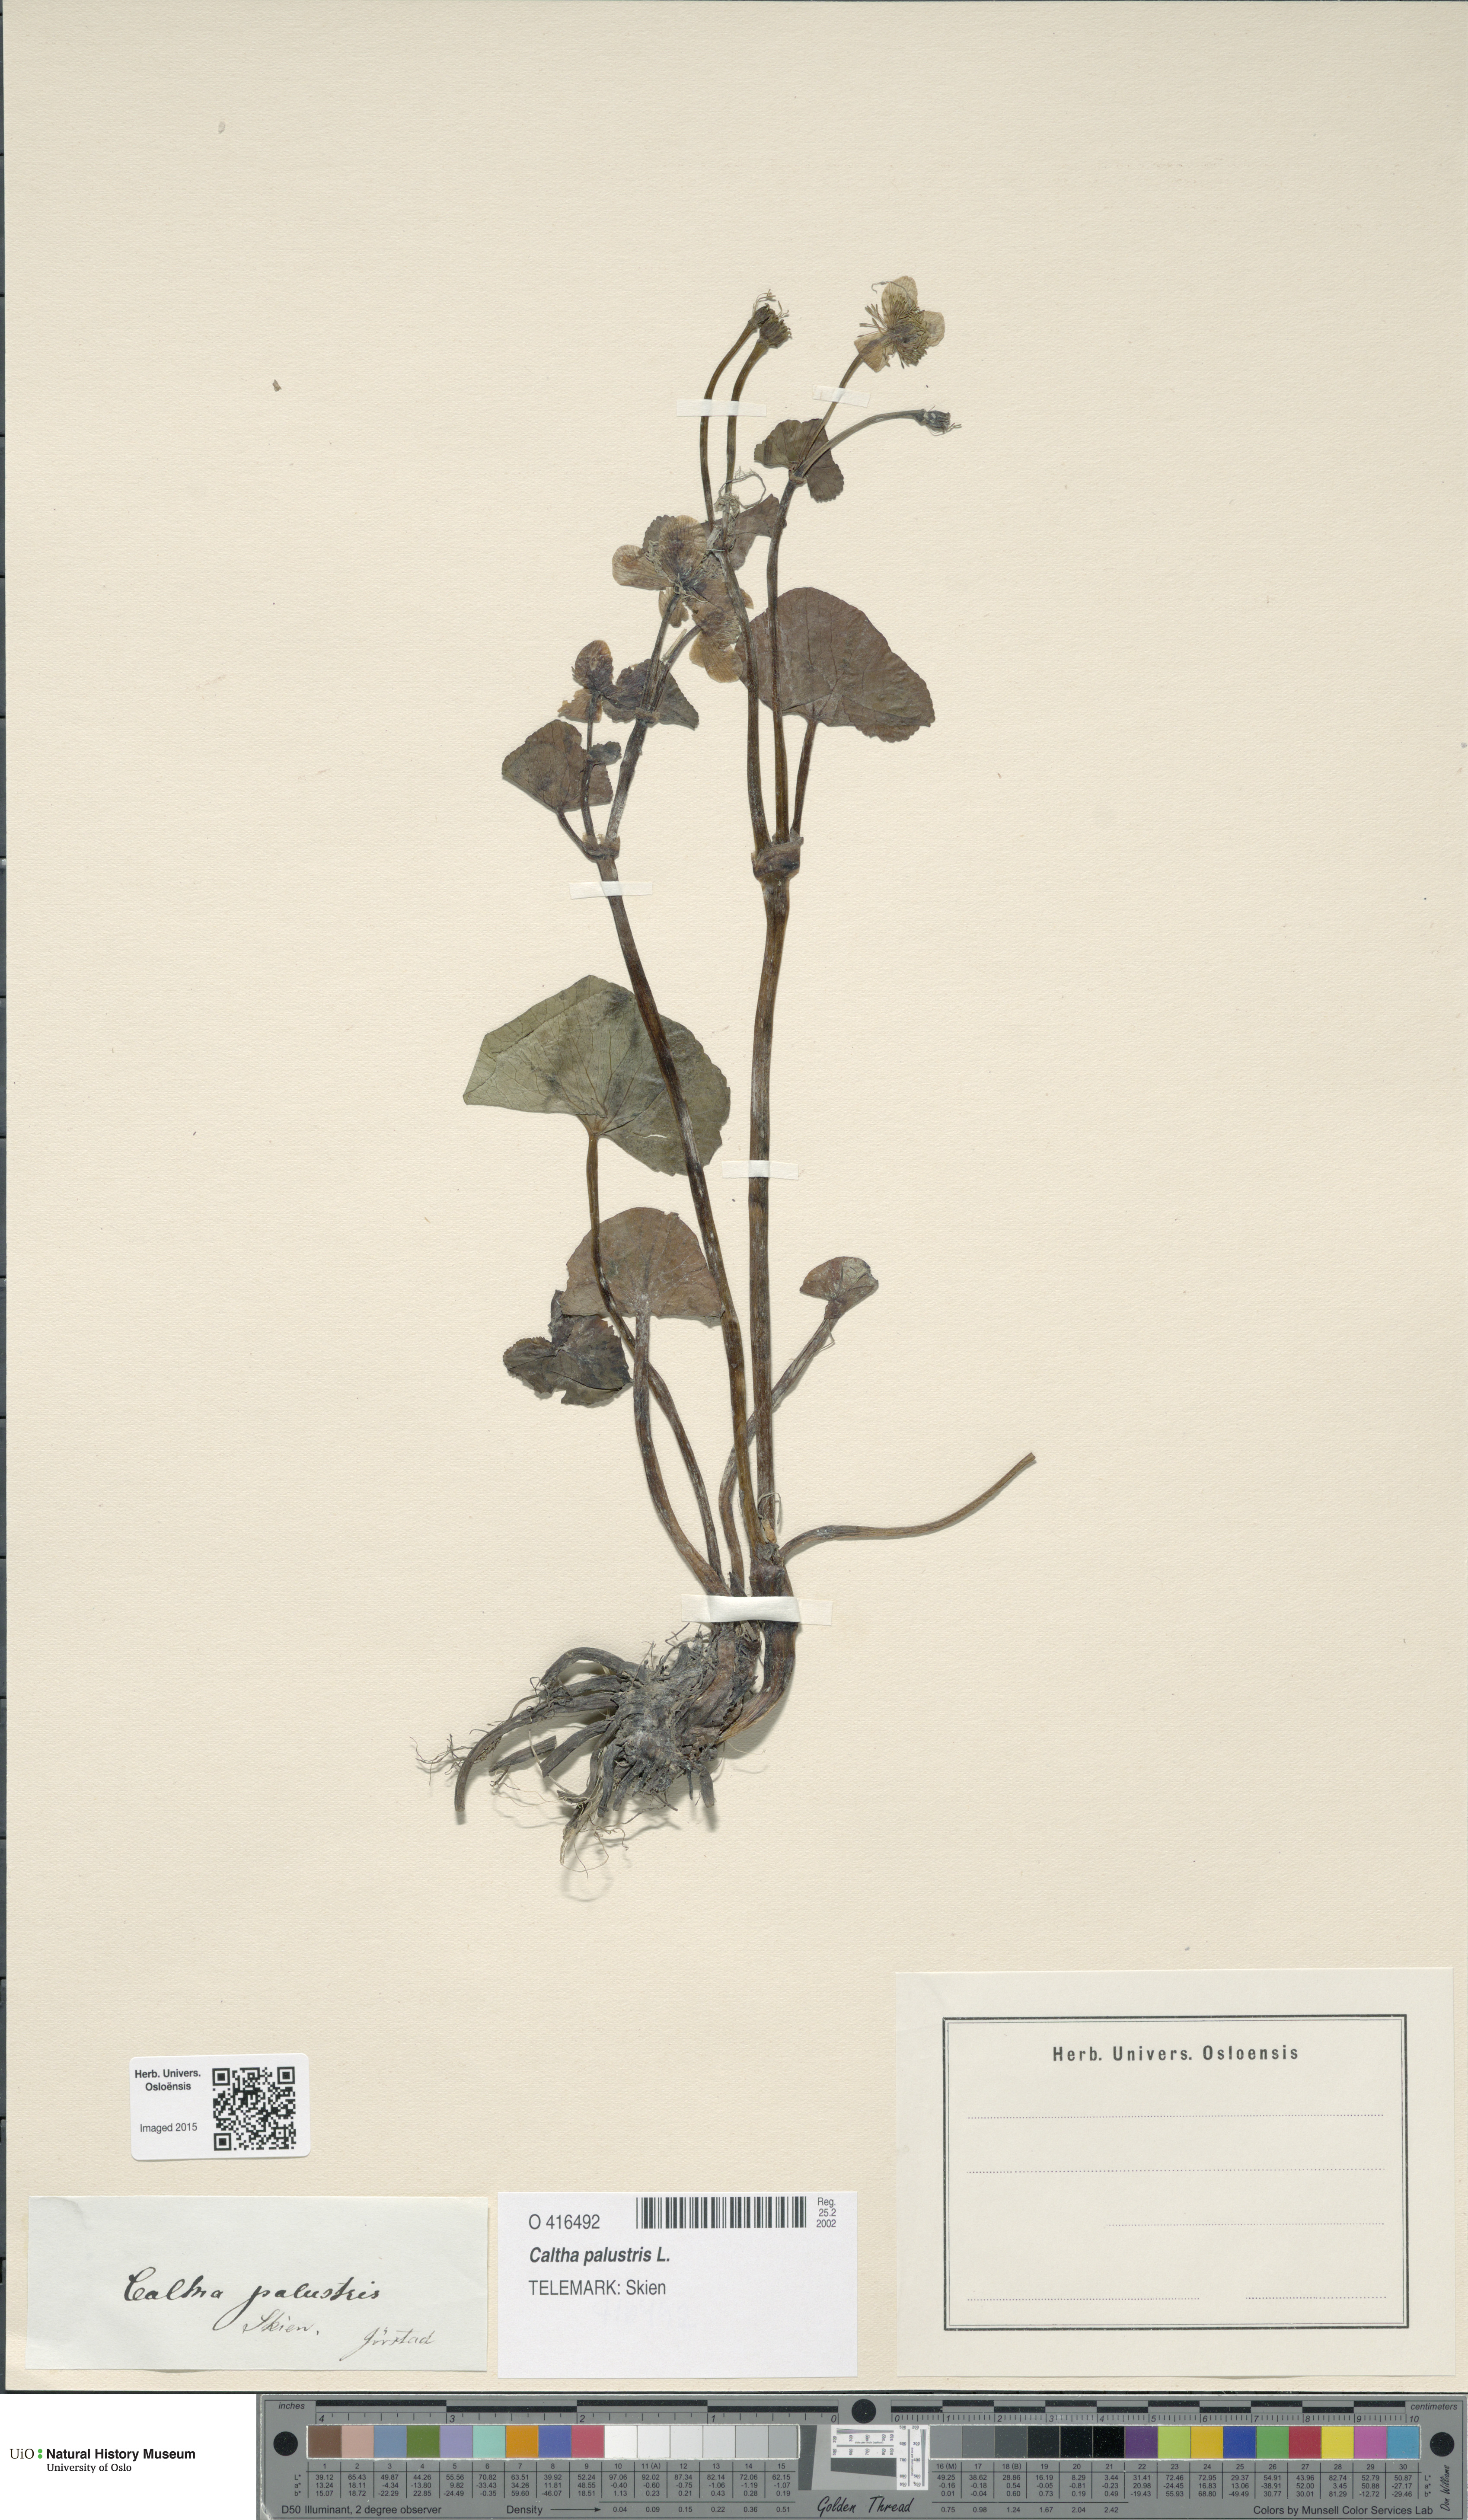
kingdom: Plantae
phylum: Tracheophyta
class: Magnoliopsida
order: Ranunculales
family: Ranunculaceae
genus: Caltha
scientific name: Caltha palustris
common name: Marsh marigold
